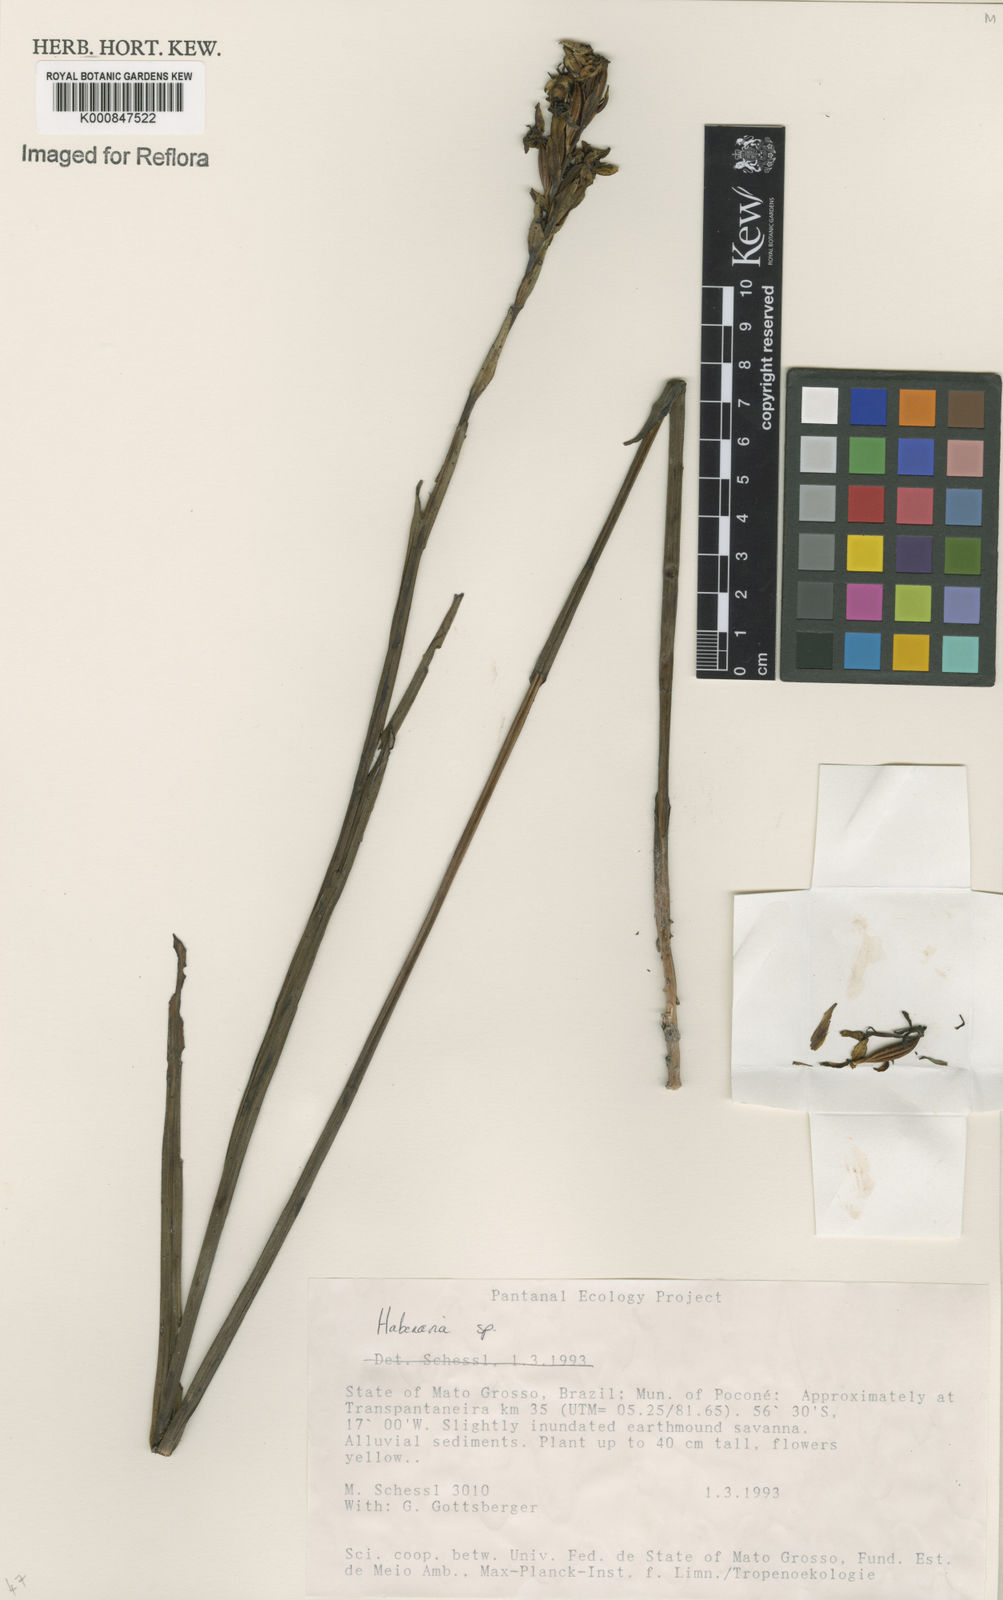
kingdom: Plantae
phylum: Tracheophyta
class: Liliopsida
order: Asparagales
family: Orchidaceae
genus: Habenaria
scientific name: Habenaria
